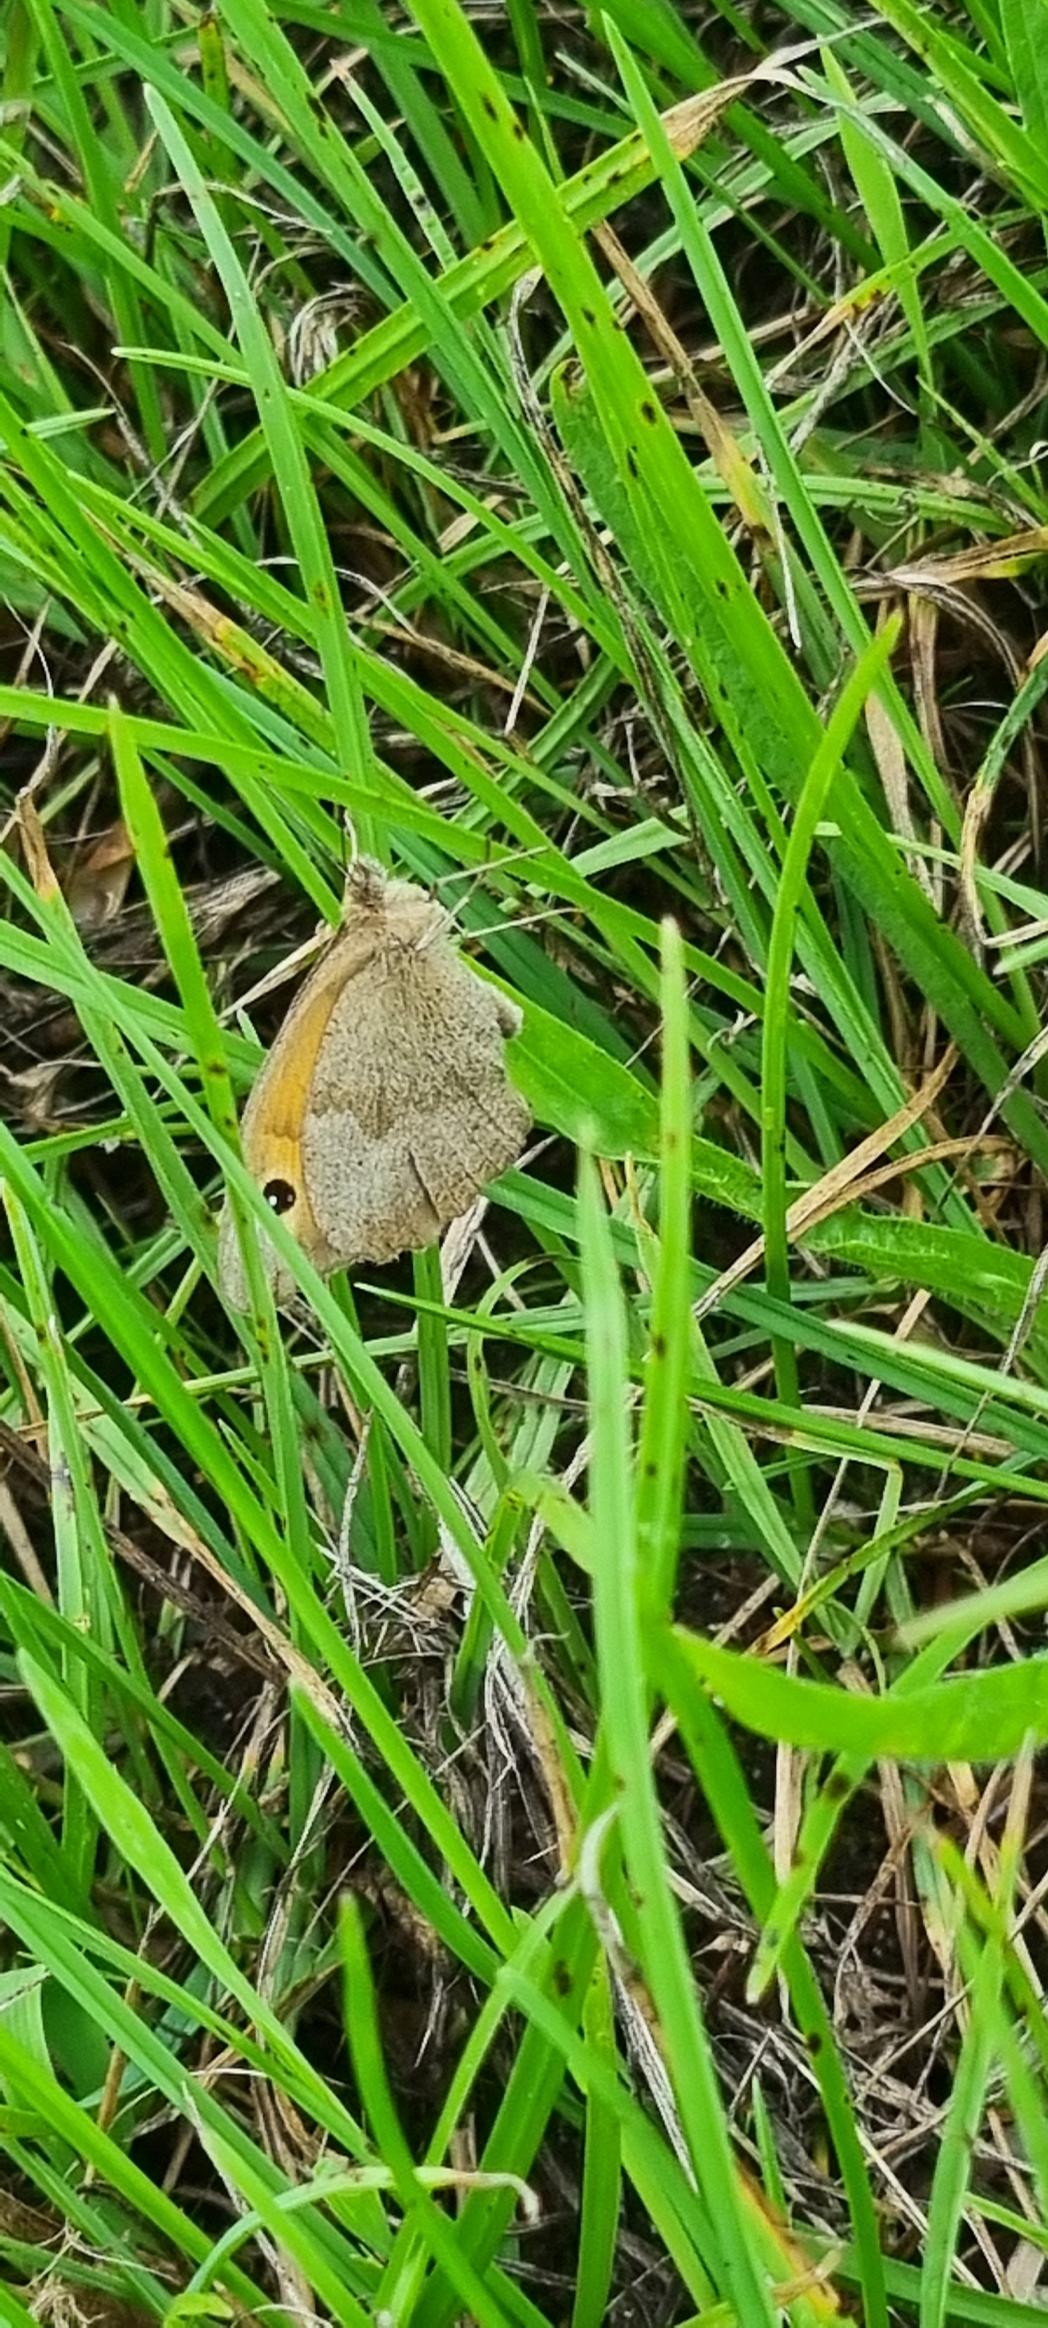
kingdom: Animalia
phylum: Arthropoda
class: Insecta
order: Lepidoptera
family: Nymphalidae
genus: Maniola
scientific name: Maniola jurtina
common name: Græsrandøje
